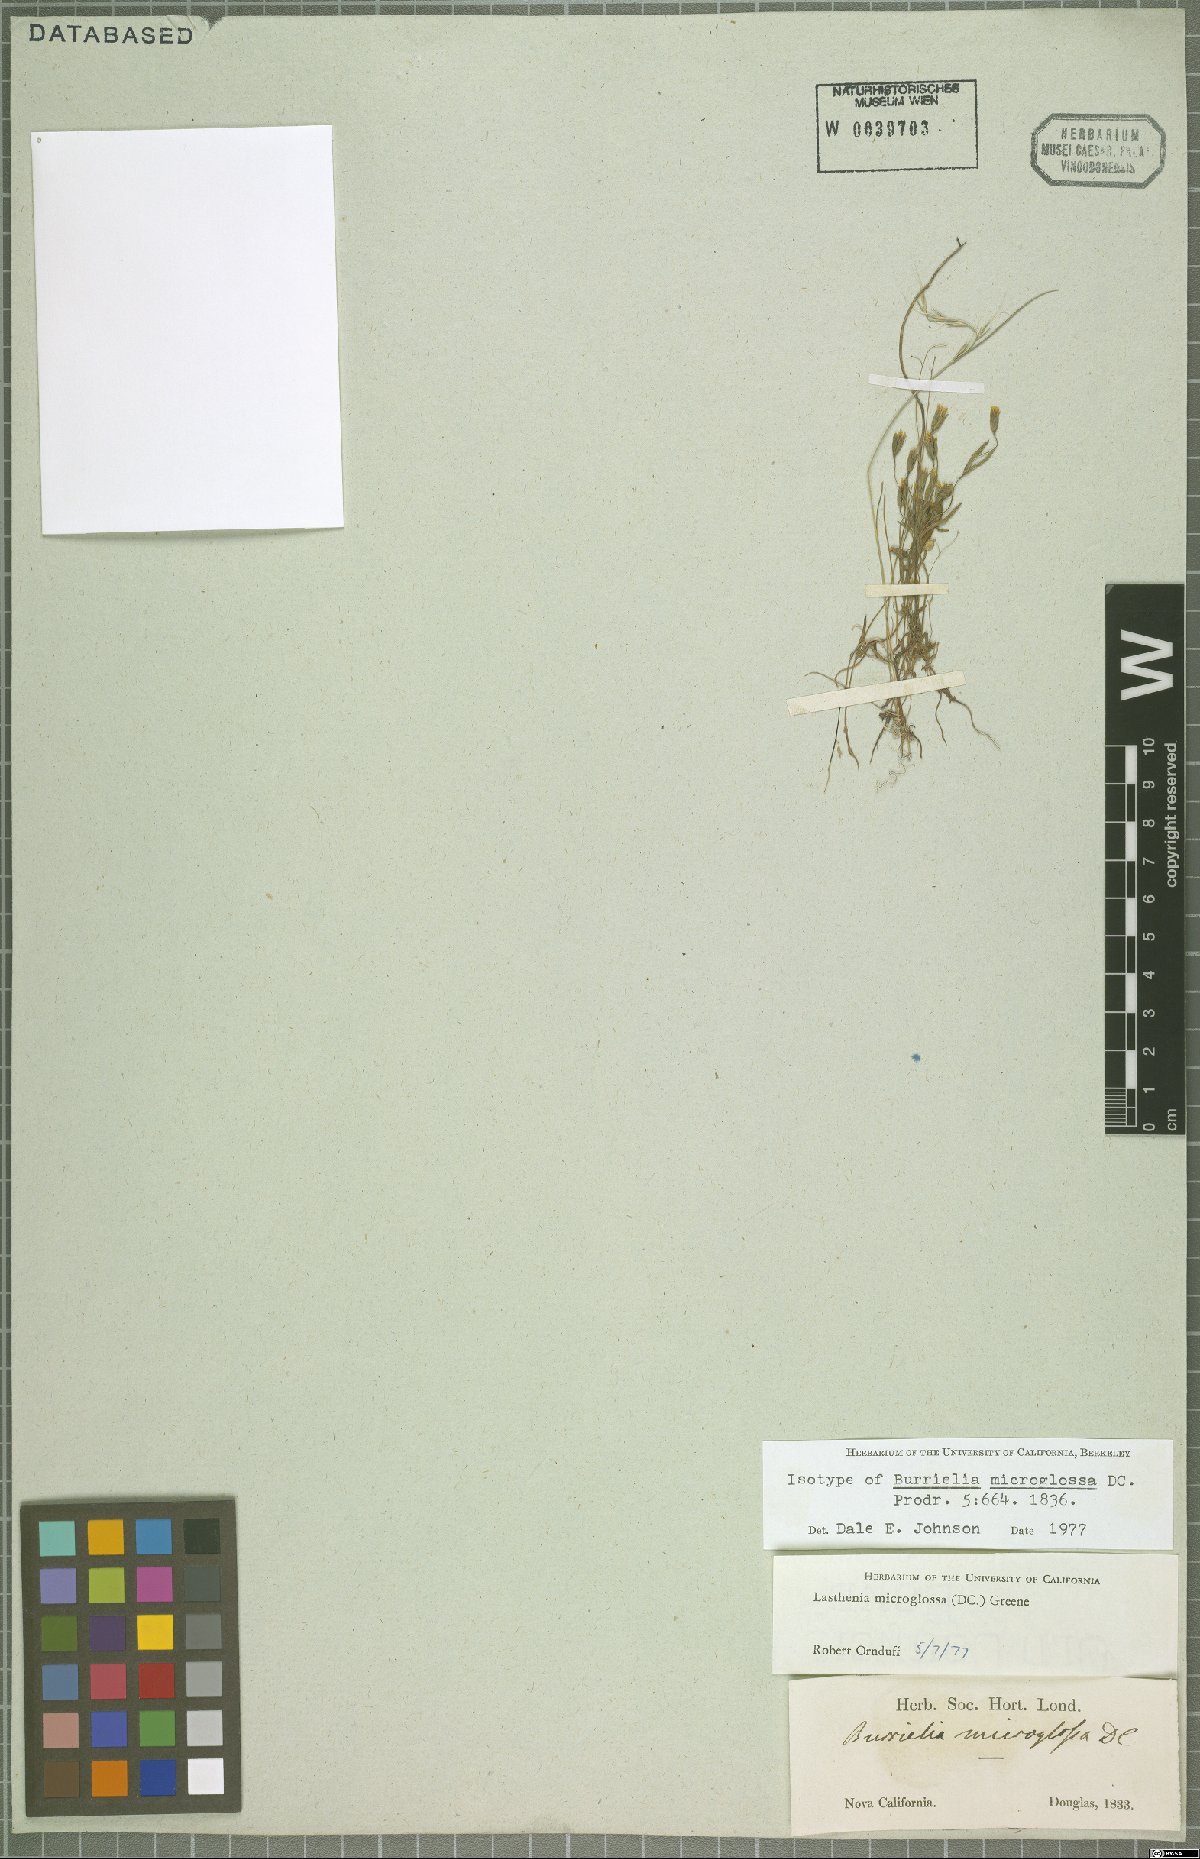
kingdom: Plantae
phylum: Tracheophyta
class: Magnoliopsida
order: Asterales
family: Asteraceae
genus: Lasthenia
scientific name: Lasthenia microglossa
